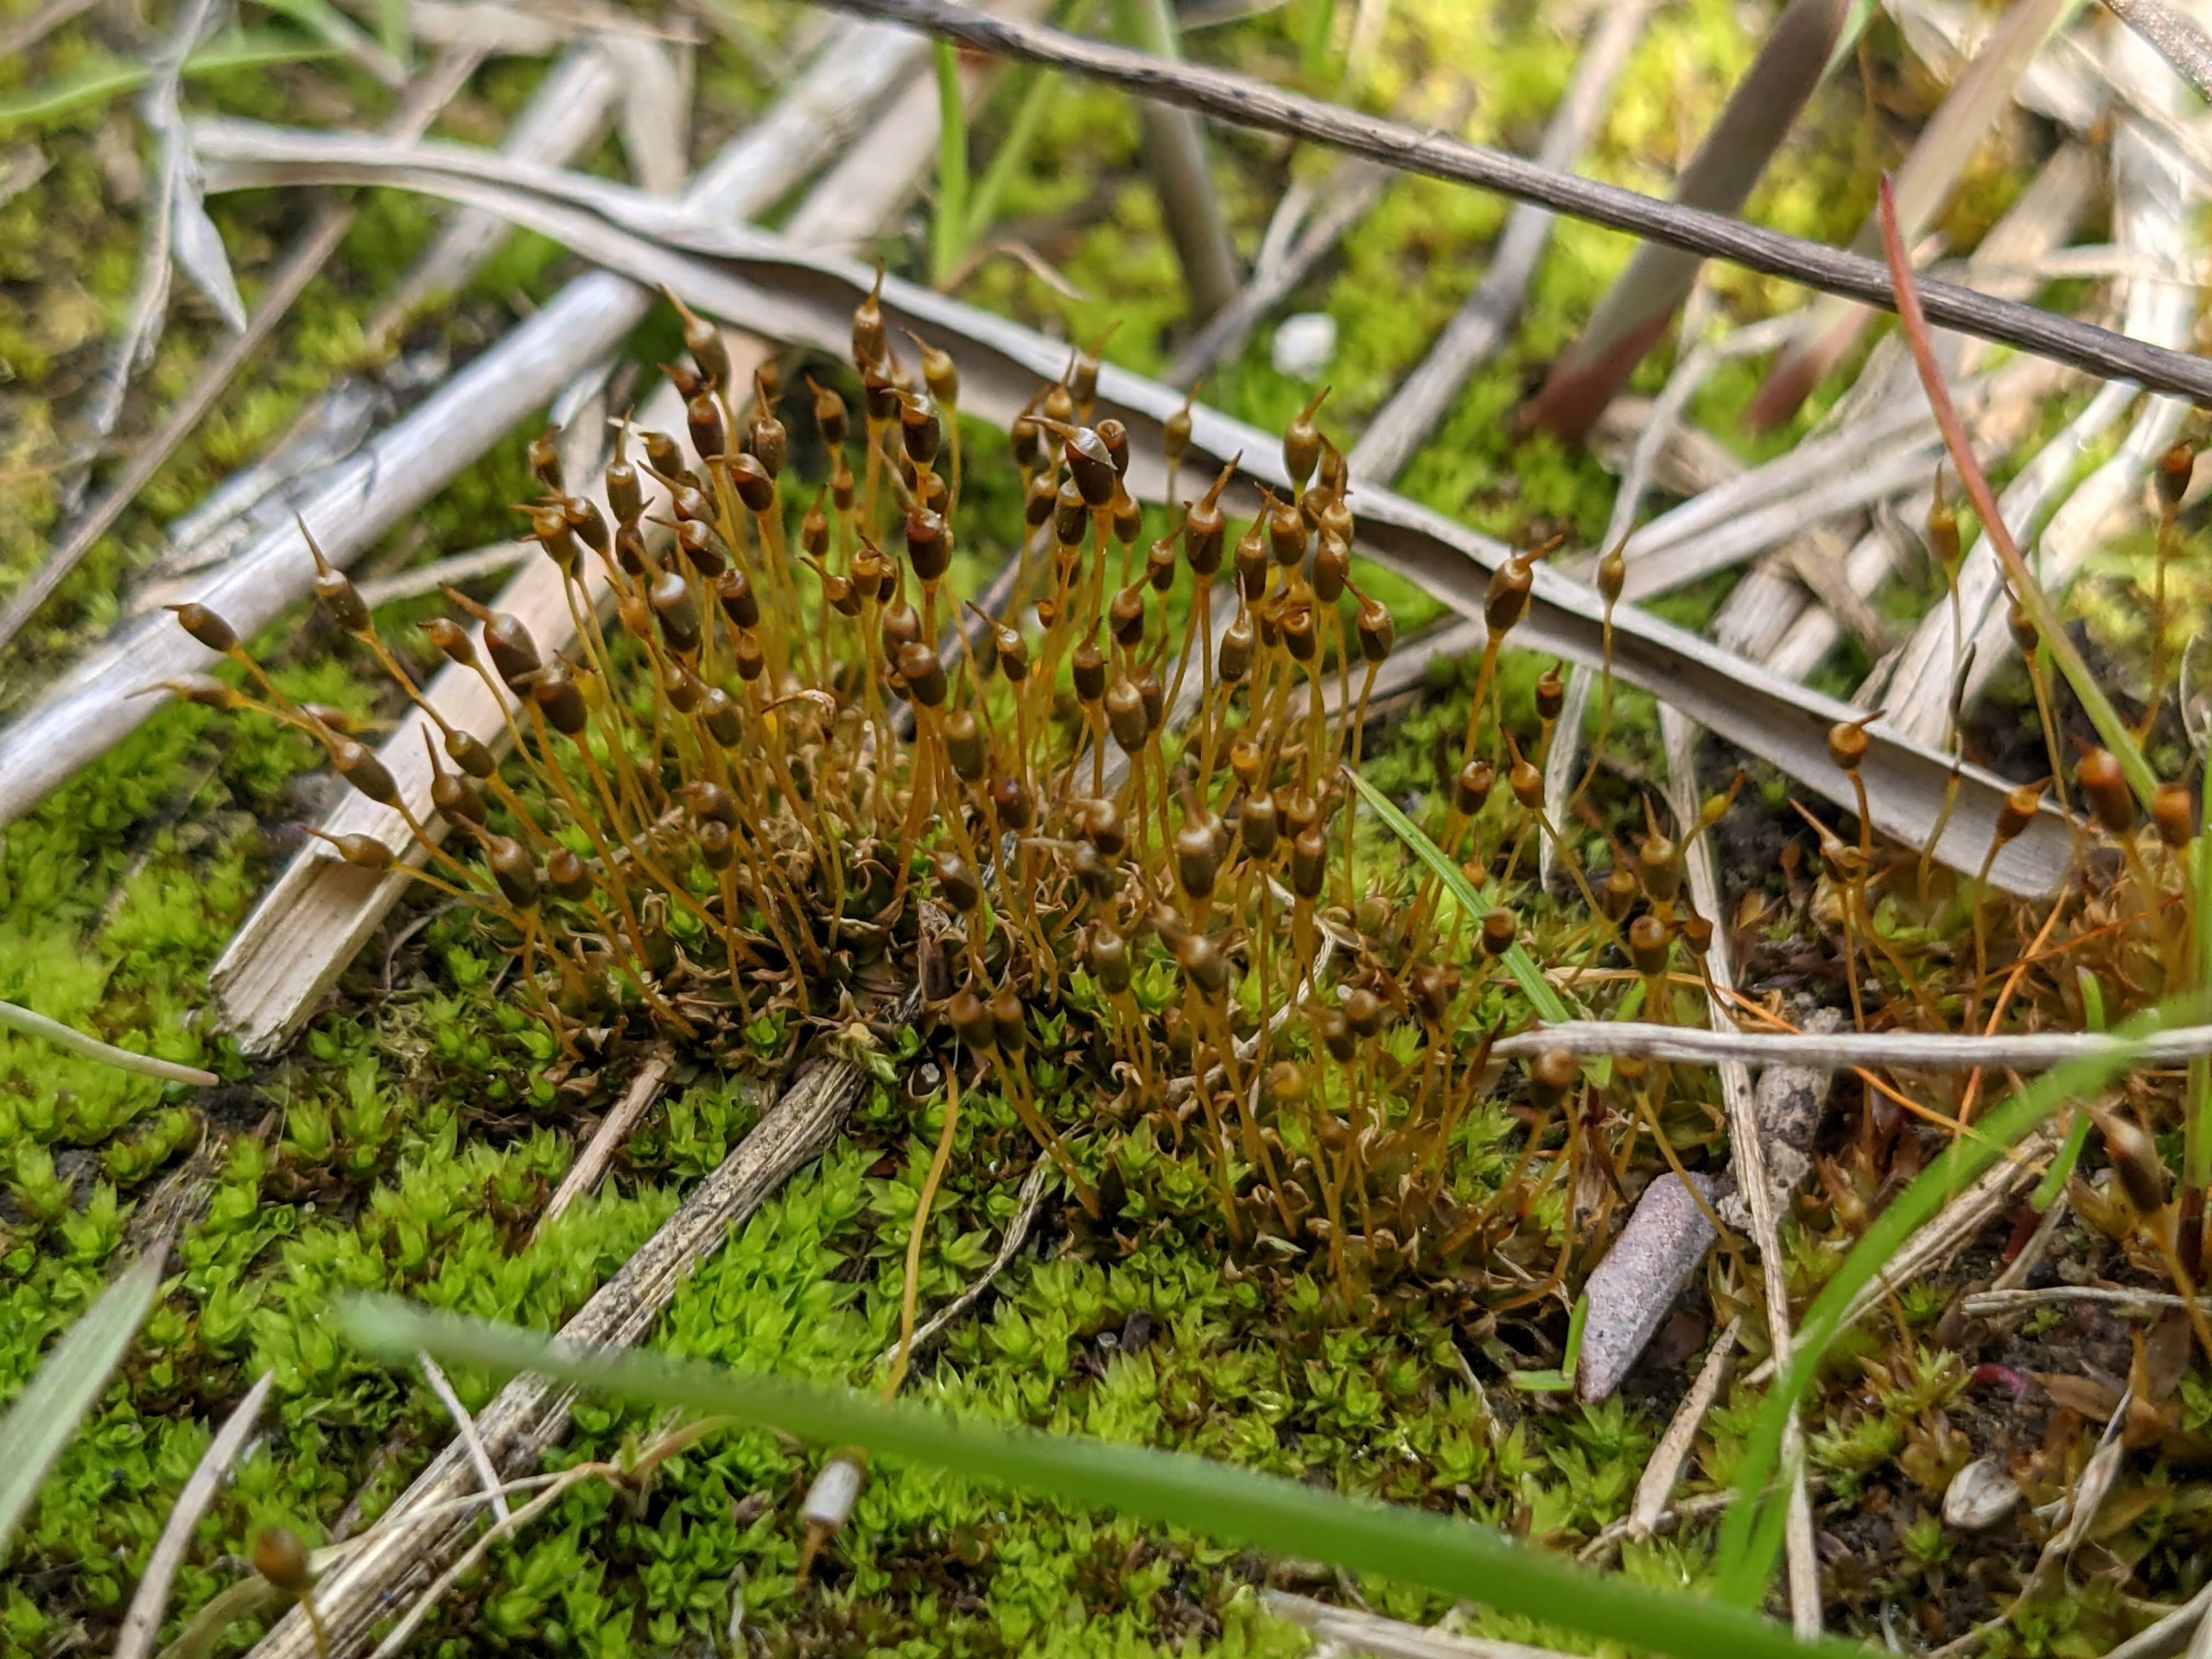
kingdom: Plantae
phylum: Bryophyta
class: Bryopsida
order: Pottiales
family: Pottiaceae
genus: Hennediella
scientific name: Hennediella heimii
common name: Salt-bægermos
